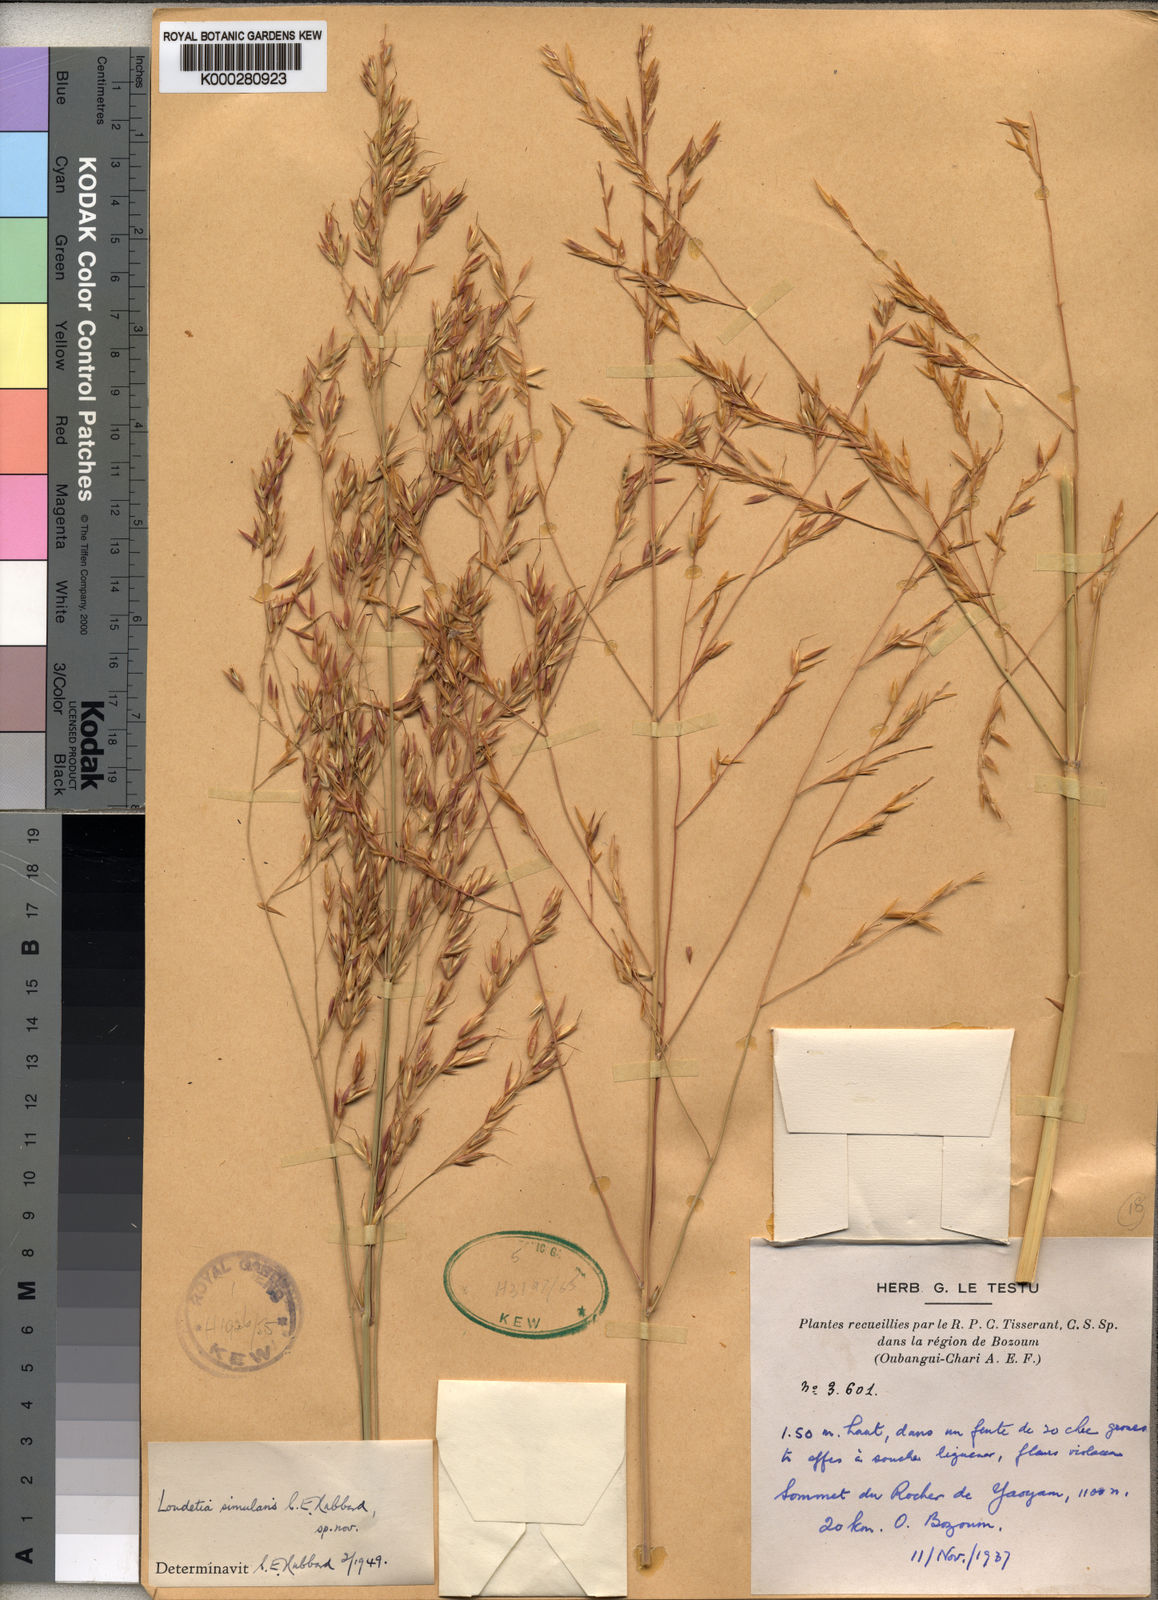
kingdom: Plantae
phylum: Tracheophyta
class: Liliopsida
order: Poales
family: Poaceae
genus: Danthoniopsis
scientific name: Danthoniopsis simulans
